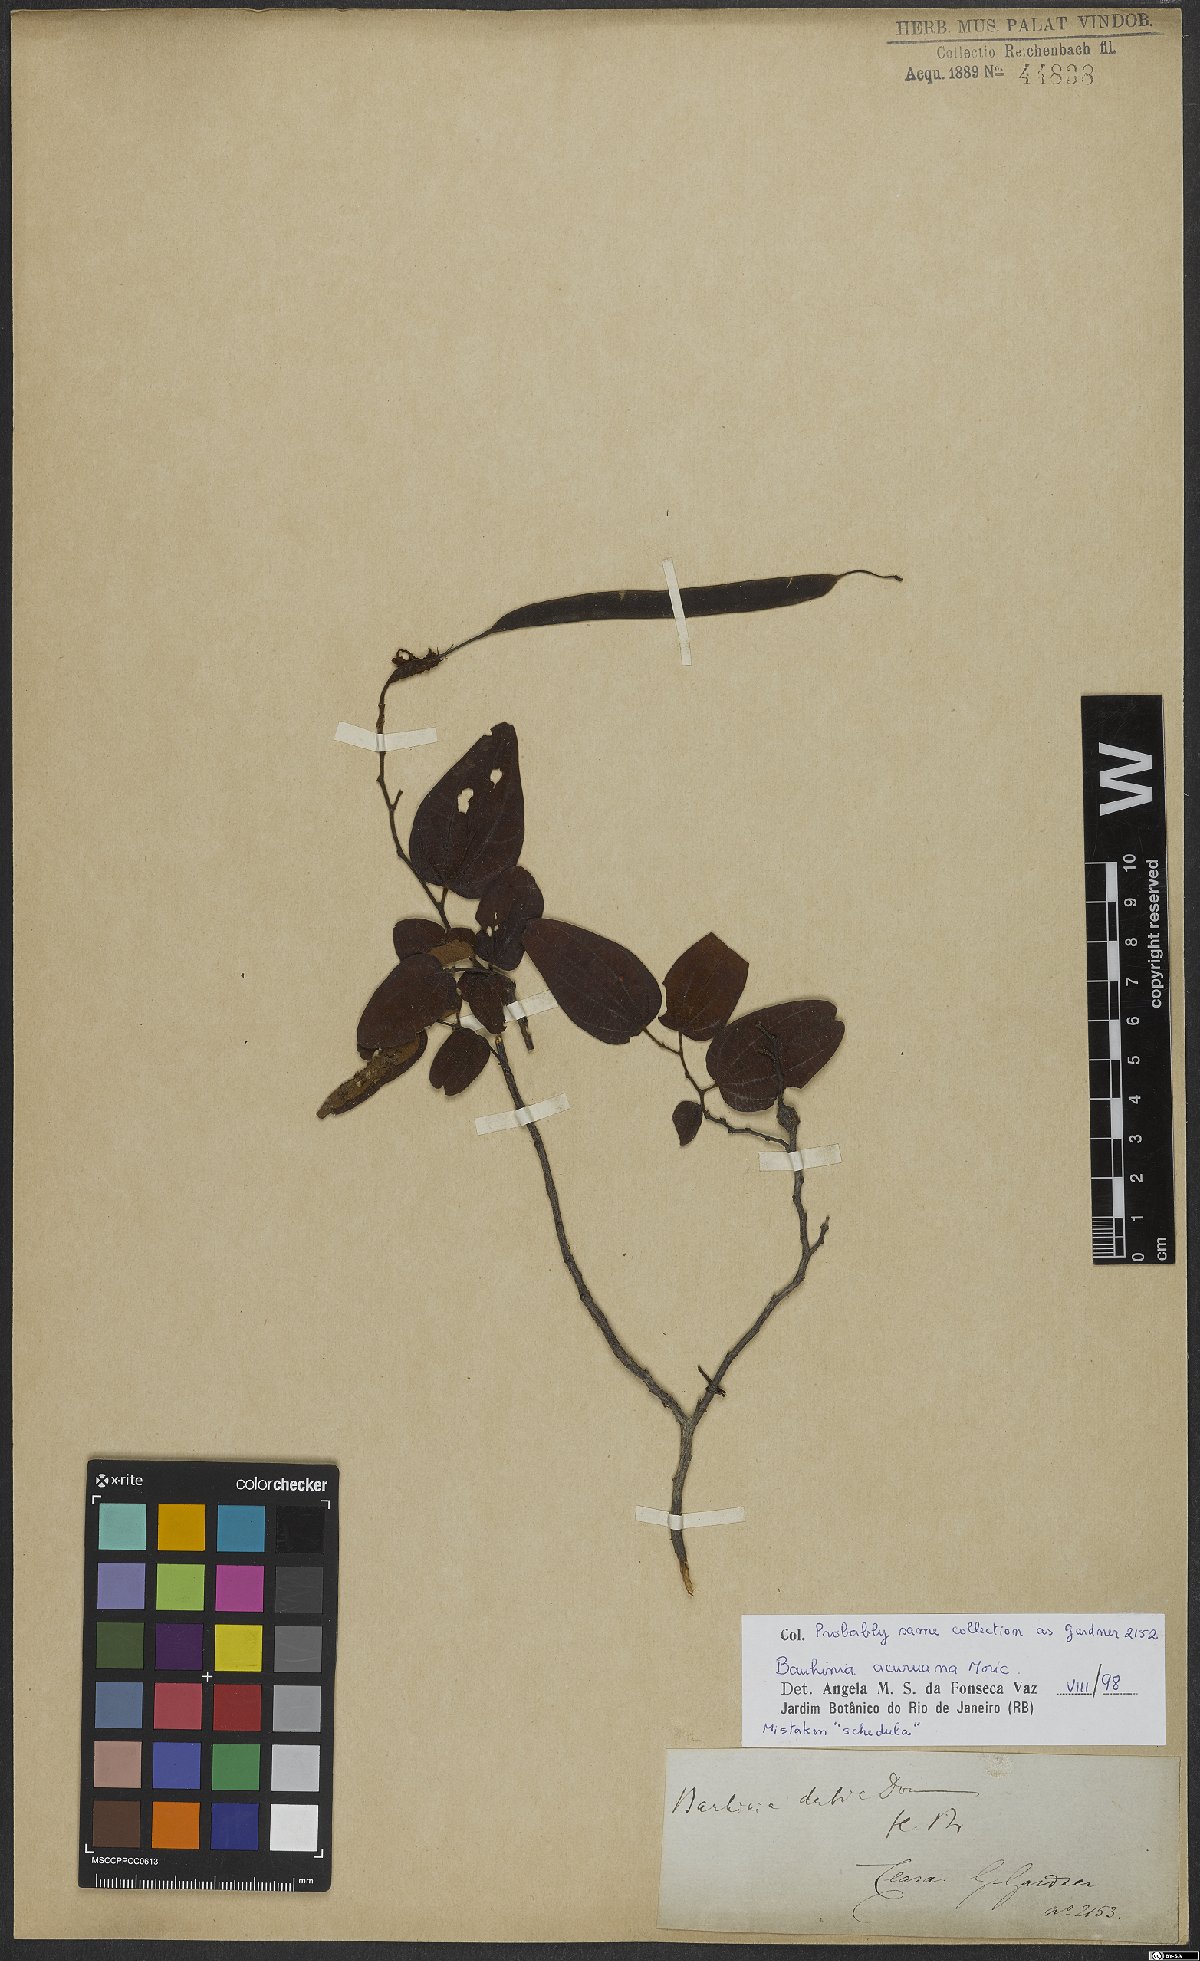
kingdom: Plantae
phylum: Tracheophyta
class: Magnoliopsida
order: Fabales
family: Fabaceae
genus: Bauhinia
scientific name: Bauhinia acuruana
